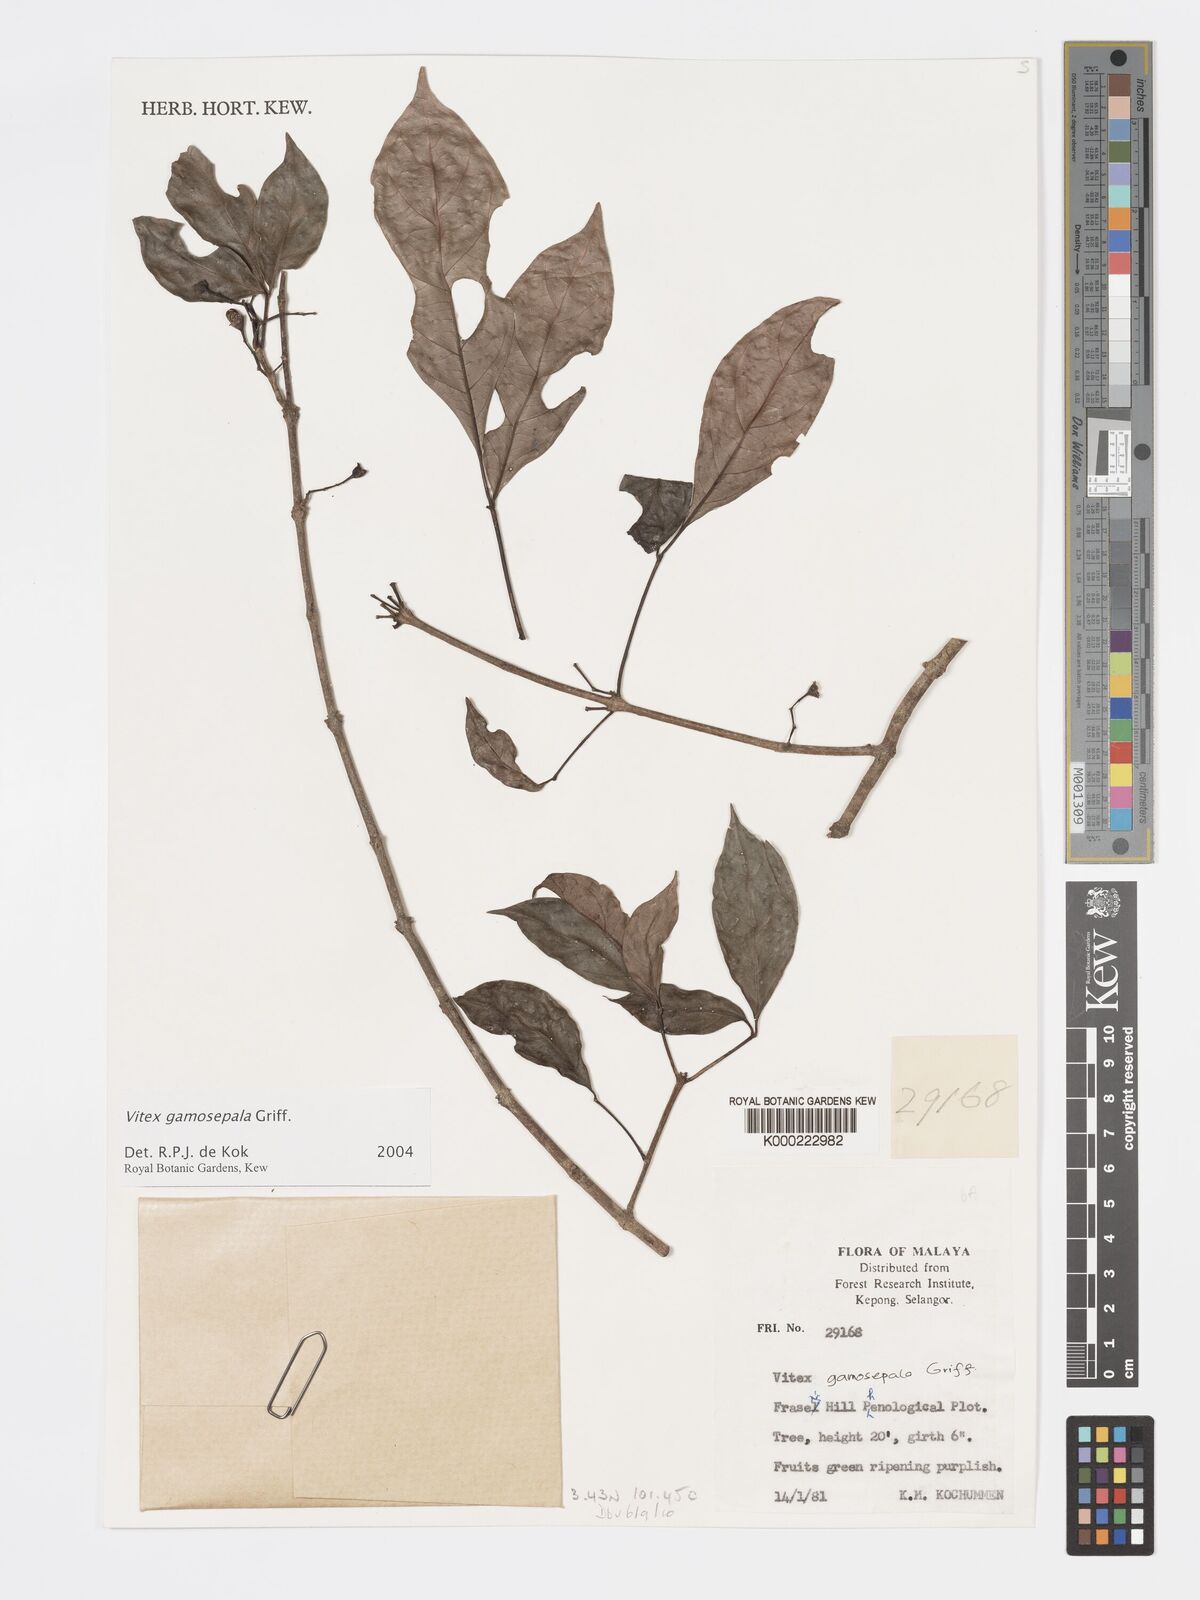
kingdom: Plantae
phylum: Tracheophyta
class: Magnoliopsida
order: Lamiales
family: Lamiaceae
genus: Vitex
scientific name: Vitex gamosepala
